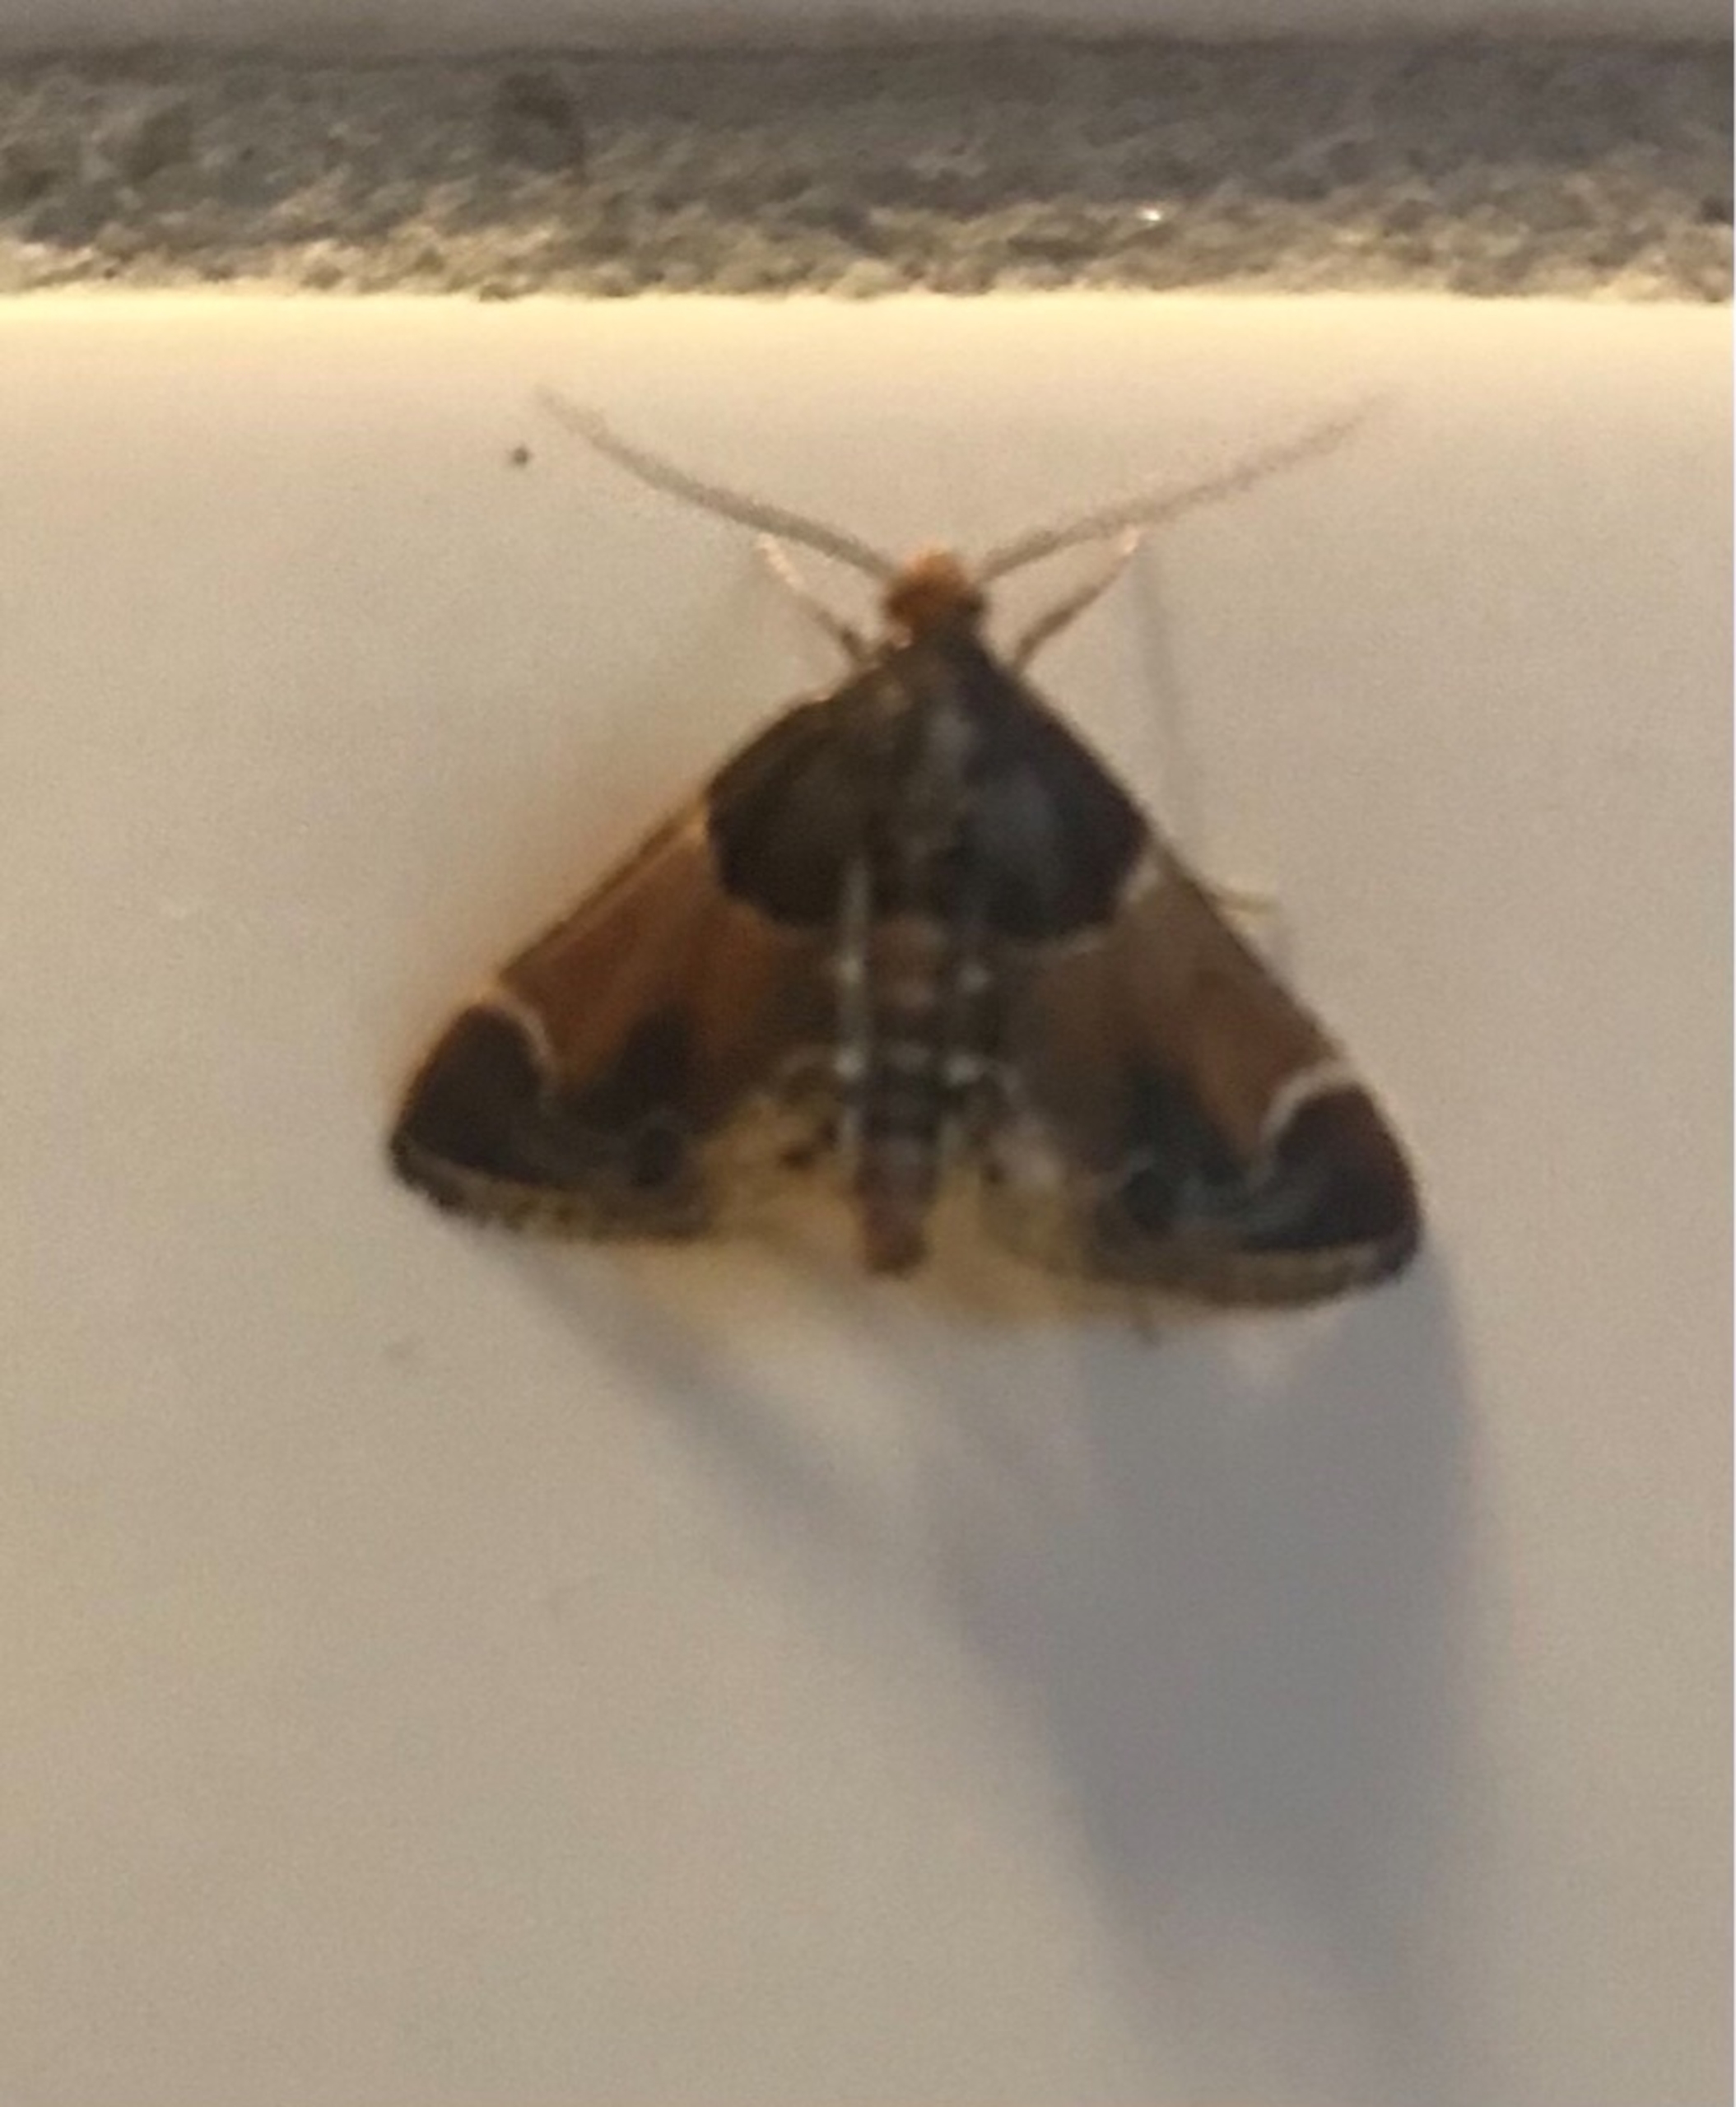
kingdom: Animalia
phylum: Arthropoda
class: Insecta
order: Lepidoptera
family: Pyralidae
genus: Pyralis
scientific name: Pyralis farinalis
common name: Stort melmøl
